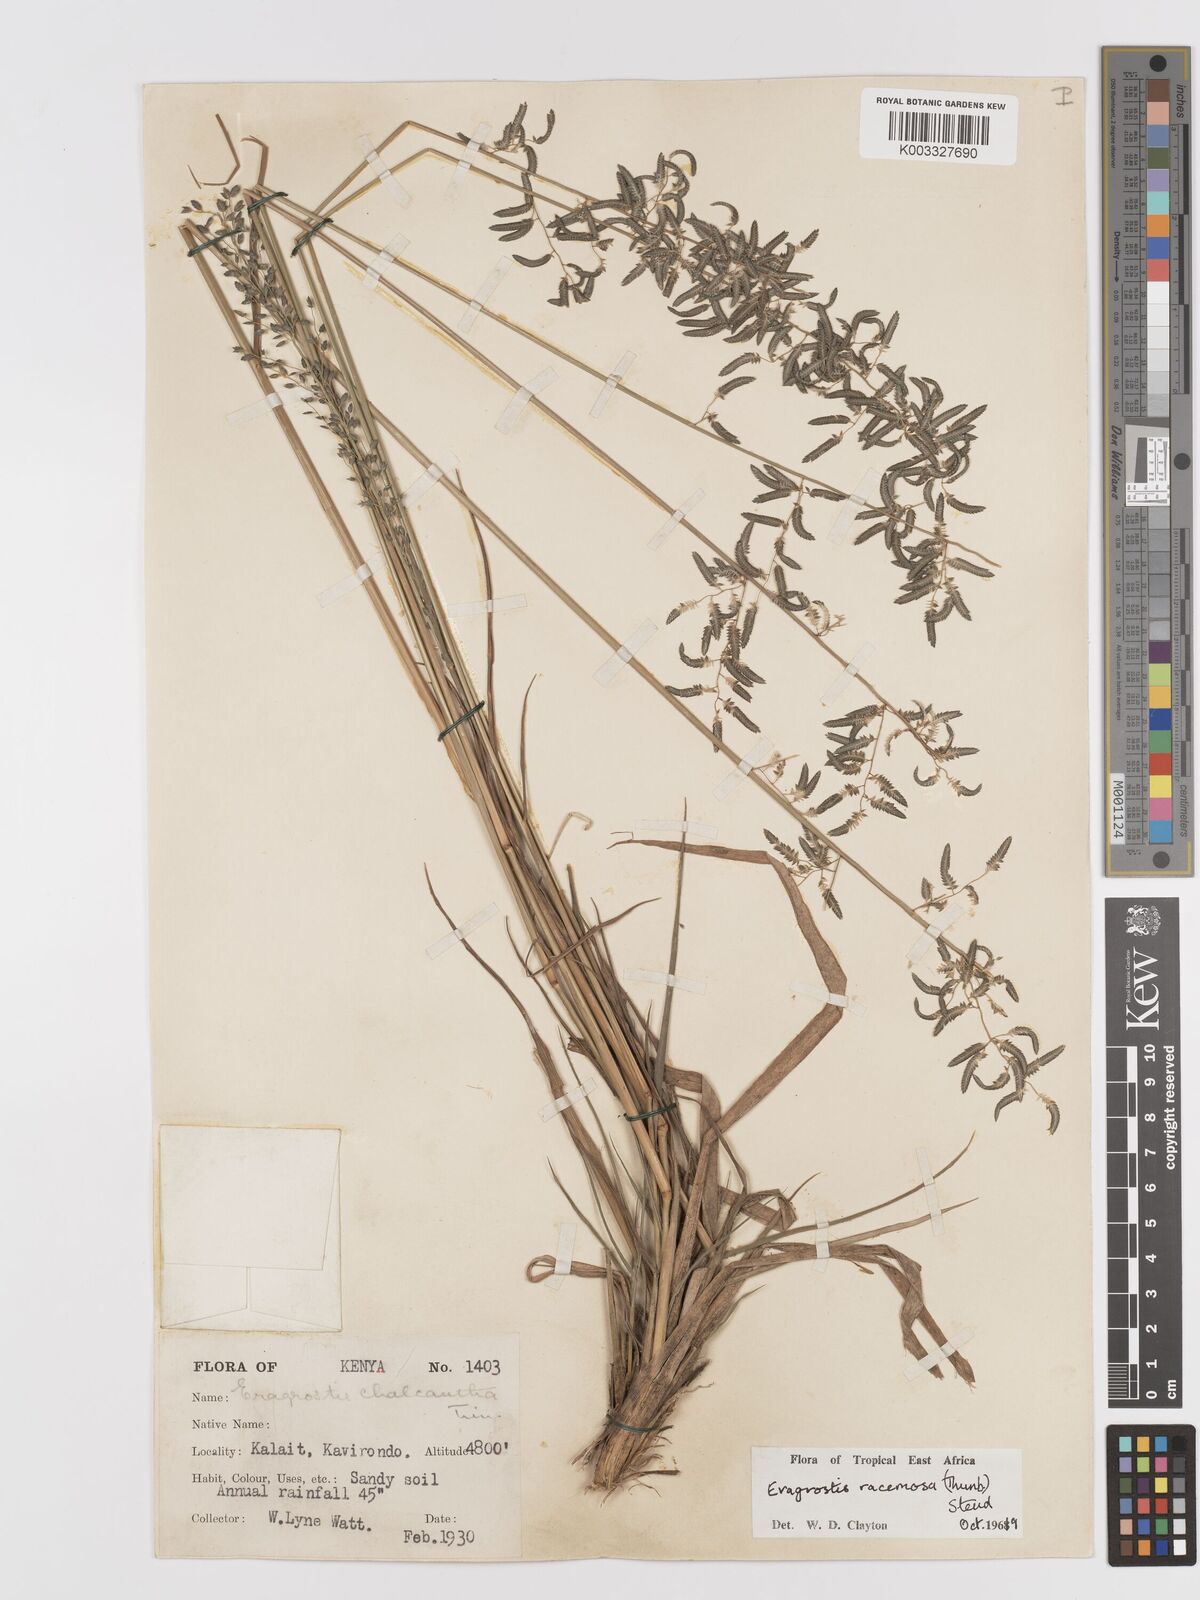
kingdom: Plantae
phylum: Tracheophyta
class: Liliopsida
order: Poales
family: Poaceae
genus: Eragrostis
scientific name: Eragrostis racemosa
